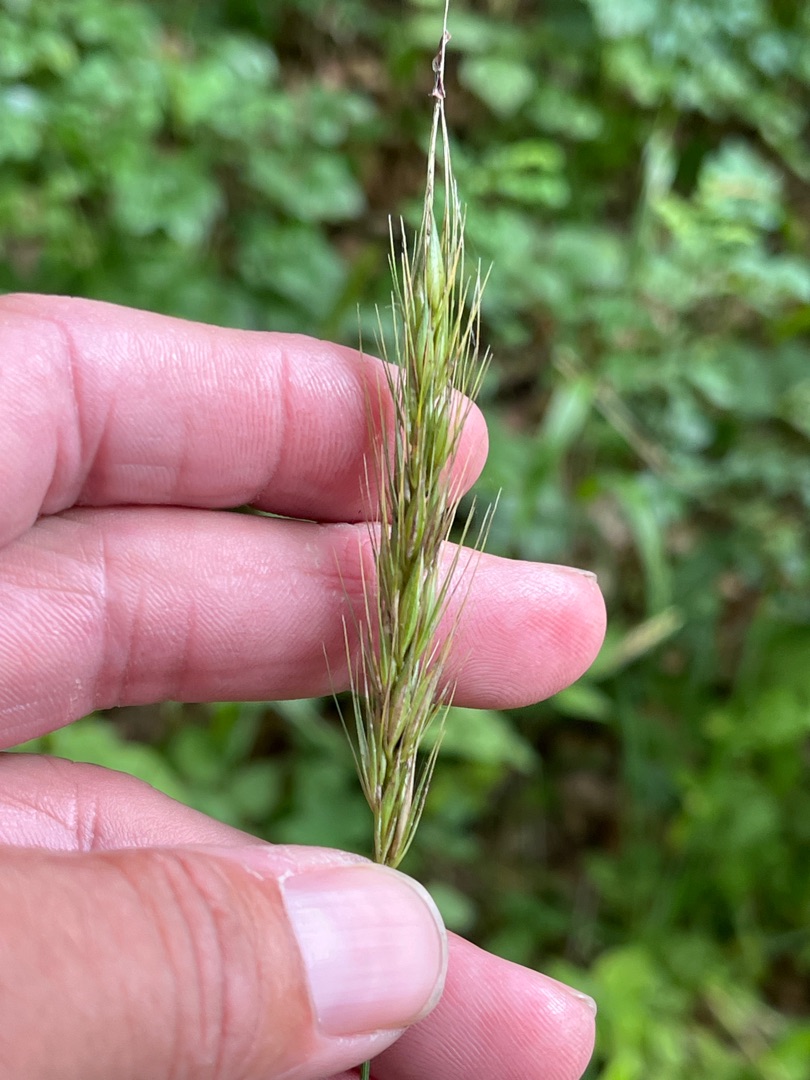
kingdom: Plantae
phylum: Tracheophyta
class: Liliopsida
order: Poales
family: Poaceae
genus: Hordelymus
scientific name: Hordelymus europaeus
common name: Skovbyg
